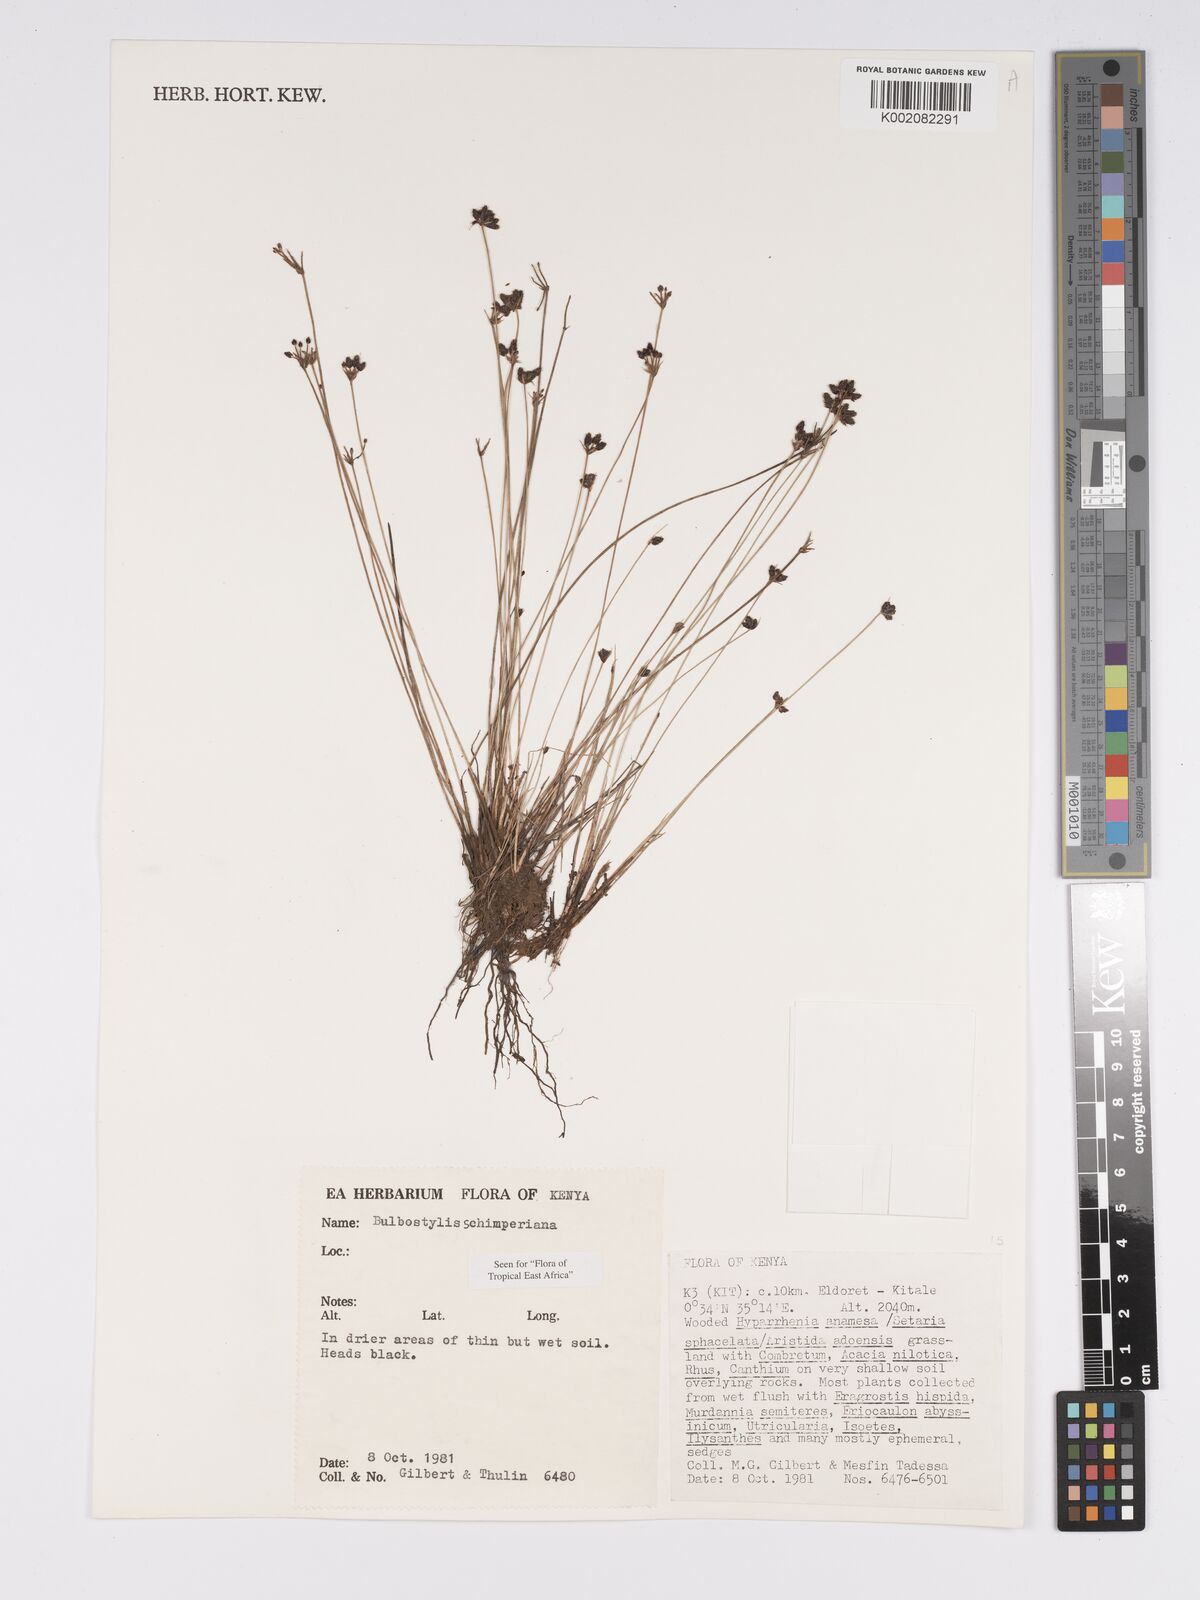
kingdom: Plantae
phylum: Tracheophyta
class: Liliopsida
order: Poales
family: Cyperaceae
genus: Bulbostylis
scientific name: Bulbostylis schimperiana
